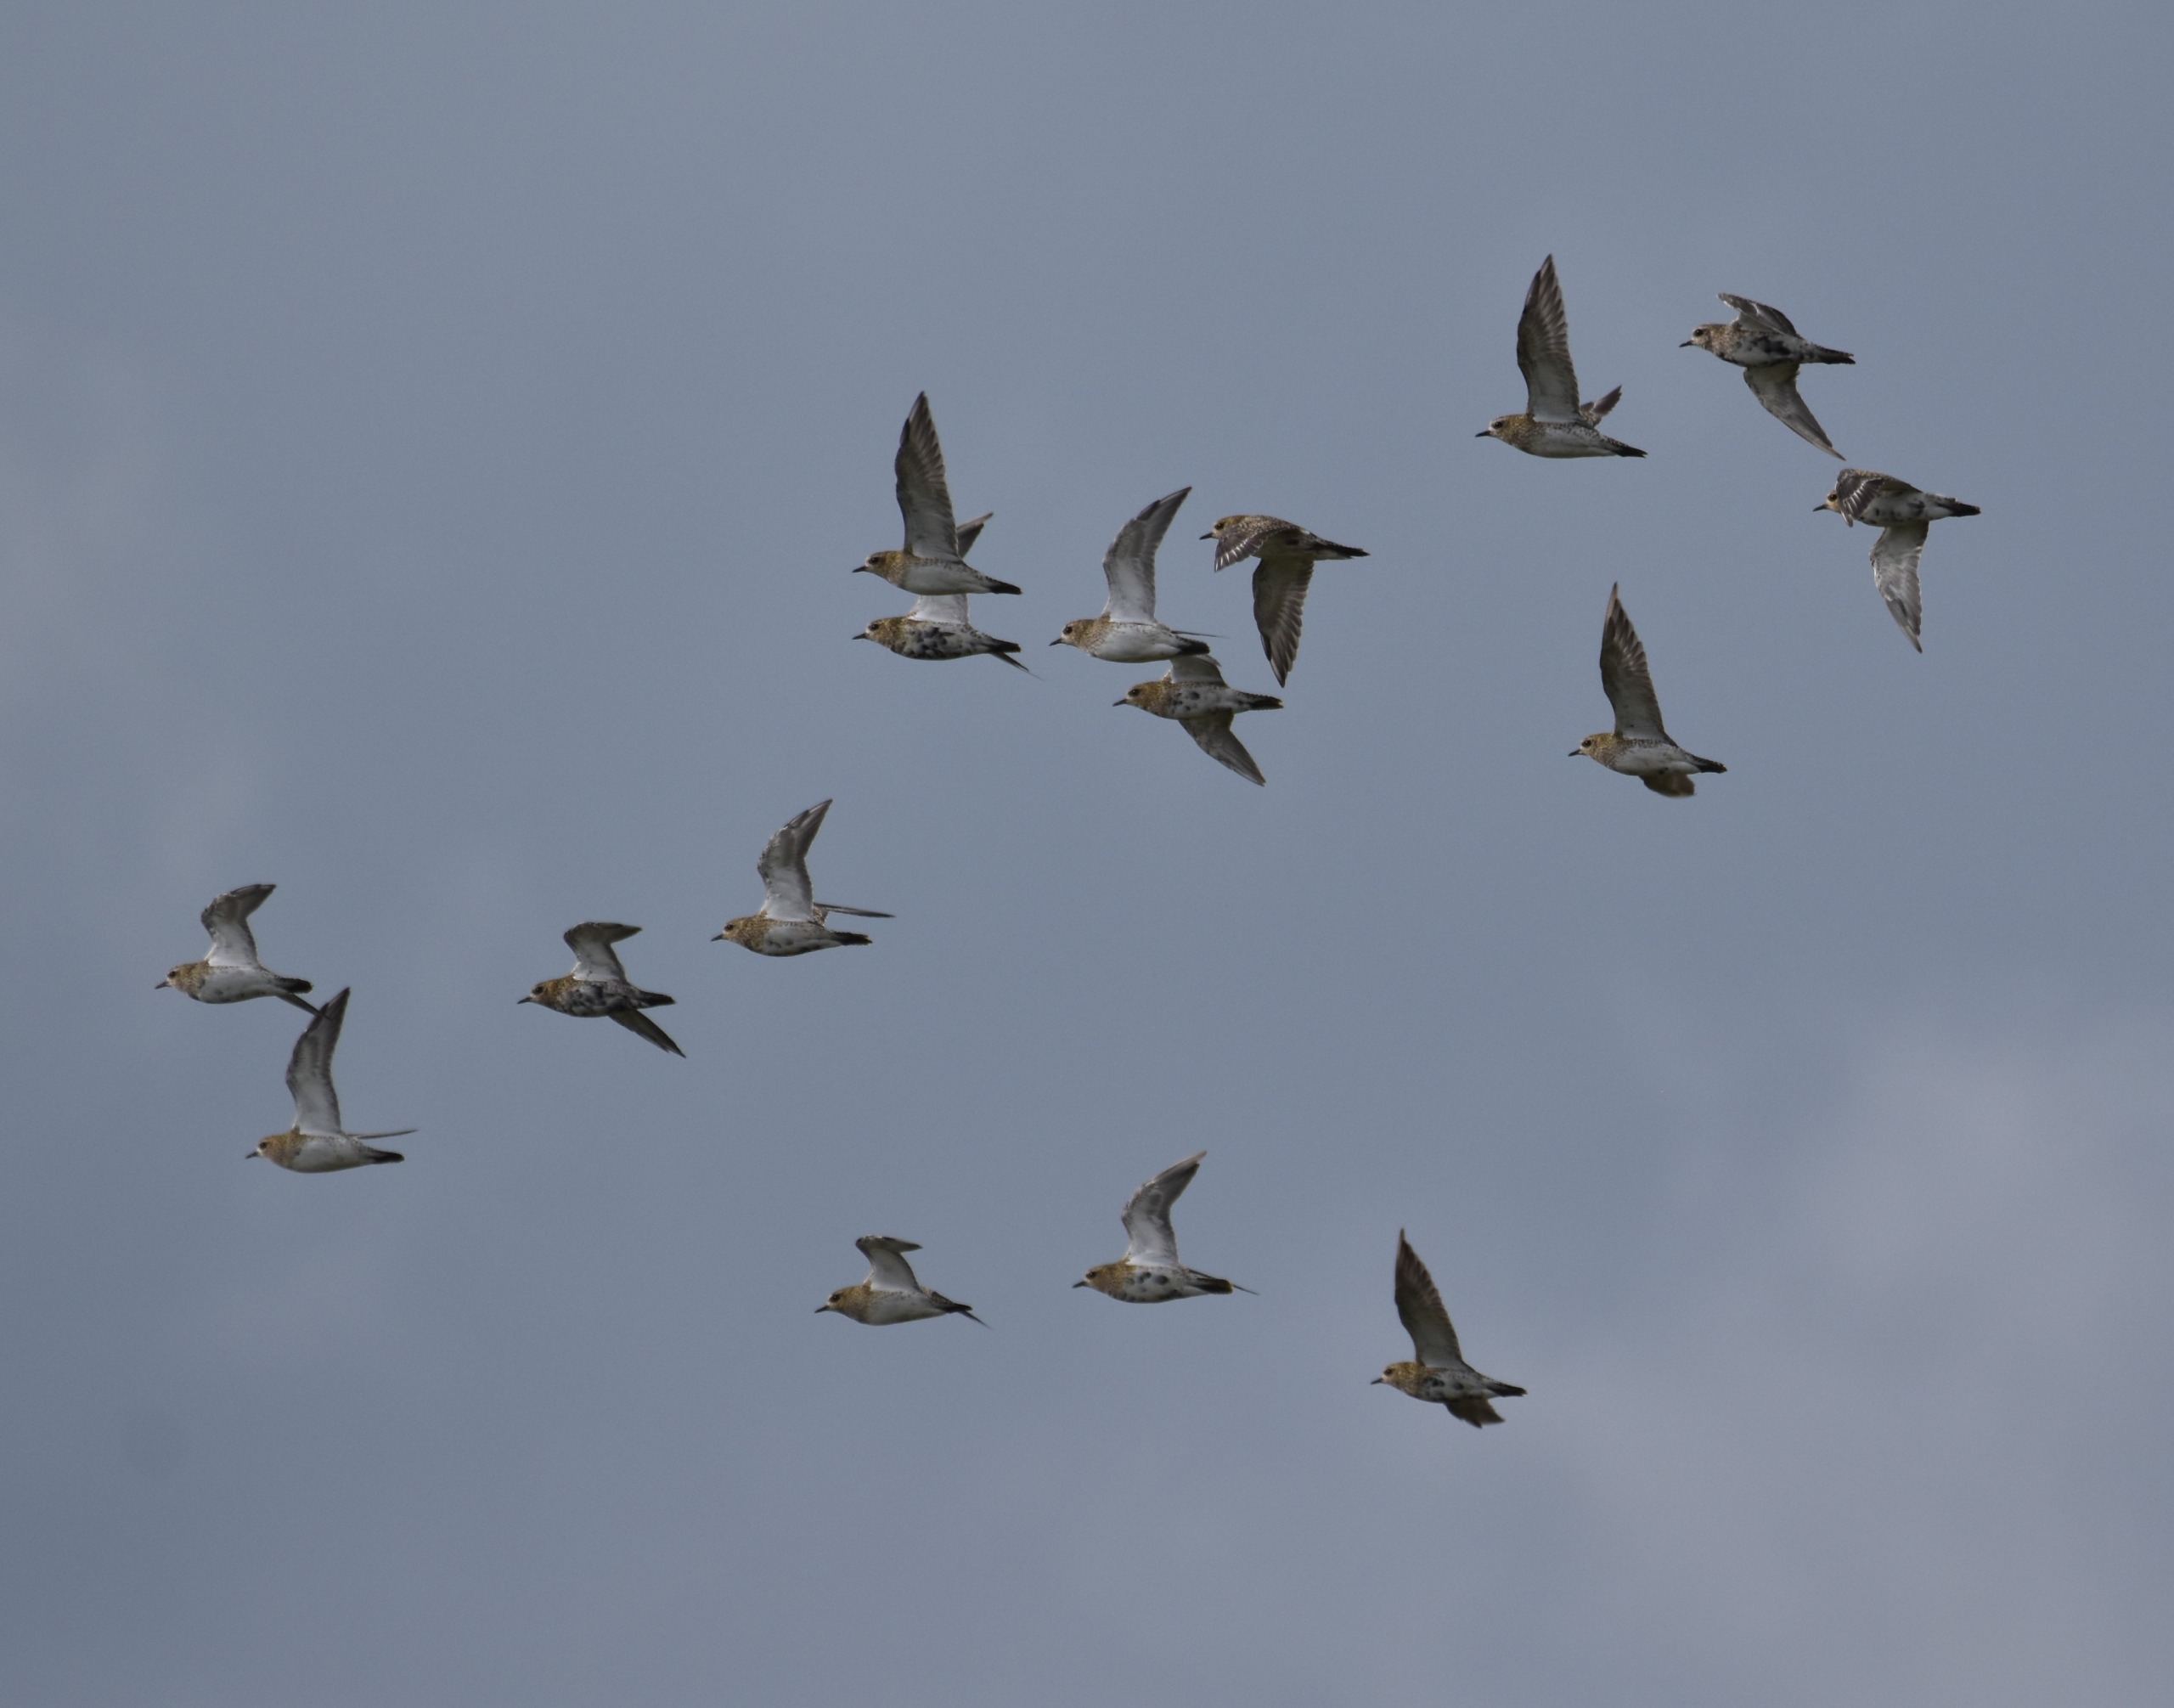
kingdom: Animalia
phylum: Chordata
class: Aves
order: Charadriiformes
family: Charadriidae
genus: Pluvialis
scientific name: Pluvialis apricaria
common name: Hjejle
